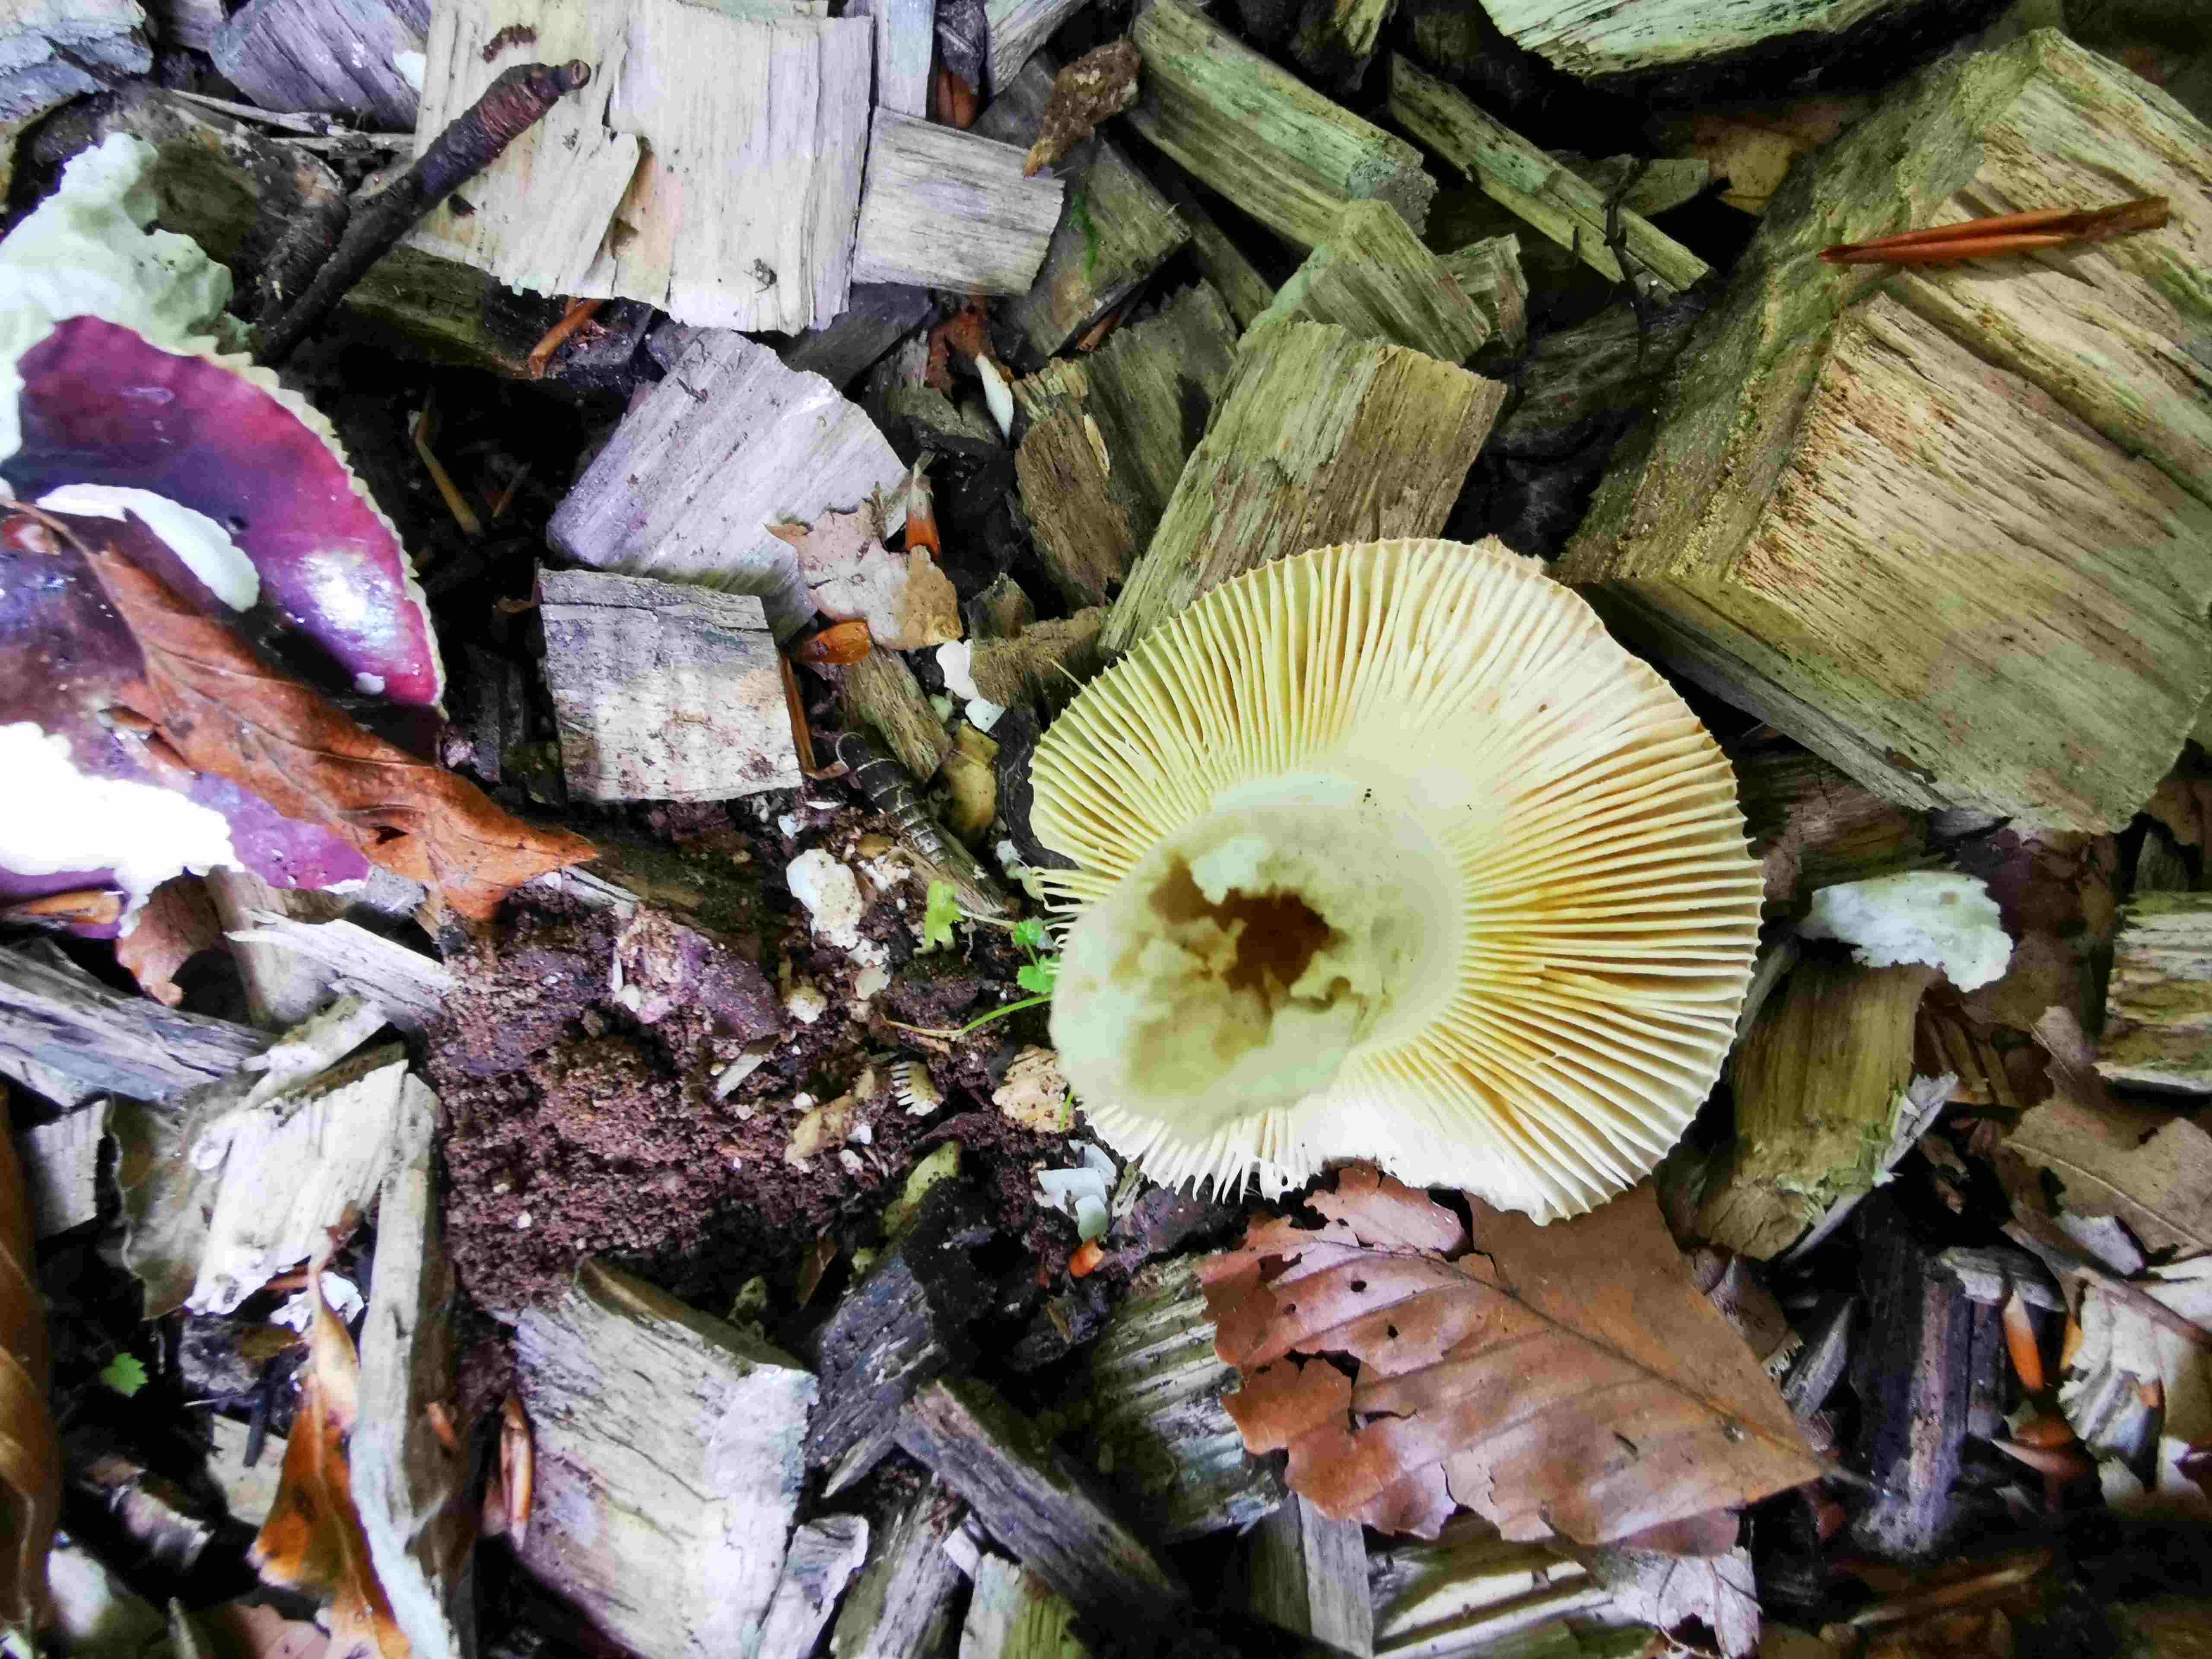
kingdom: Fungi
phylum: Basidiomycota
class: Agaricomycetes
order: Russulales
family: Russulaceae
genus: Russula
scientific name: Russula atropurpurea
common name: purpurbroget skørhat
